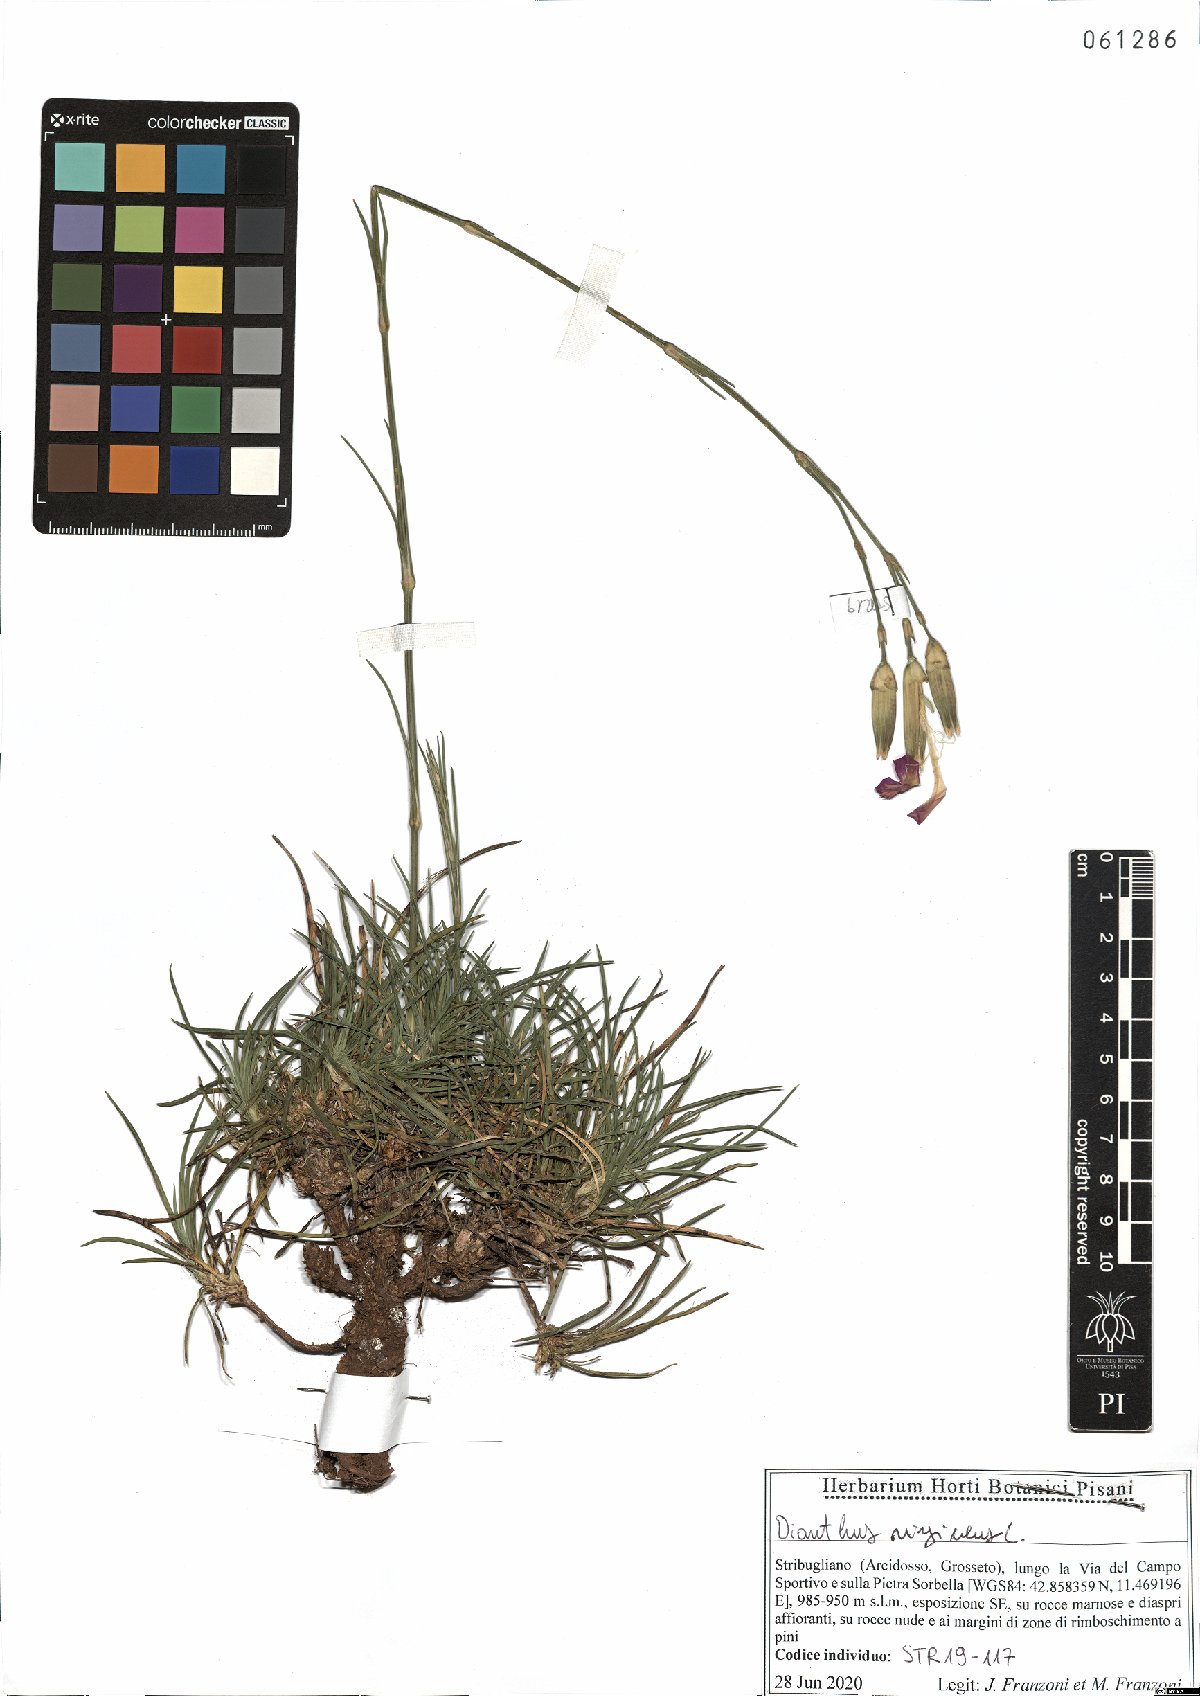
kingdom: Plantae
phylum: Tracheophyta
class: Magnoliopsida
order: Caryophyllales
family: Caryophyllaceae
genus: Dianthus
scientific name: Dianthus virgineus
